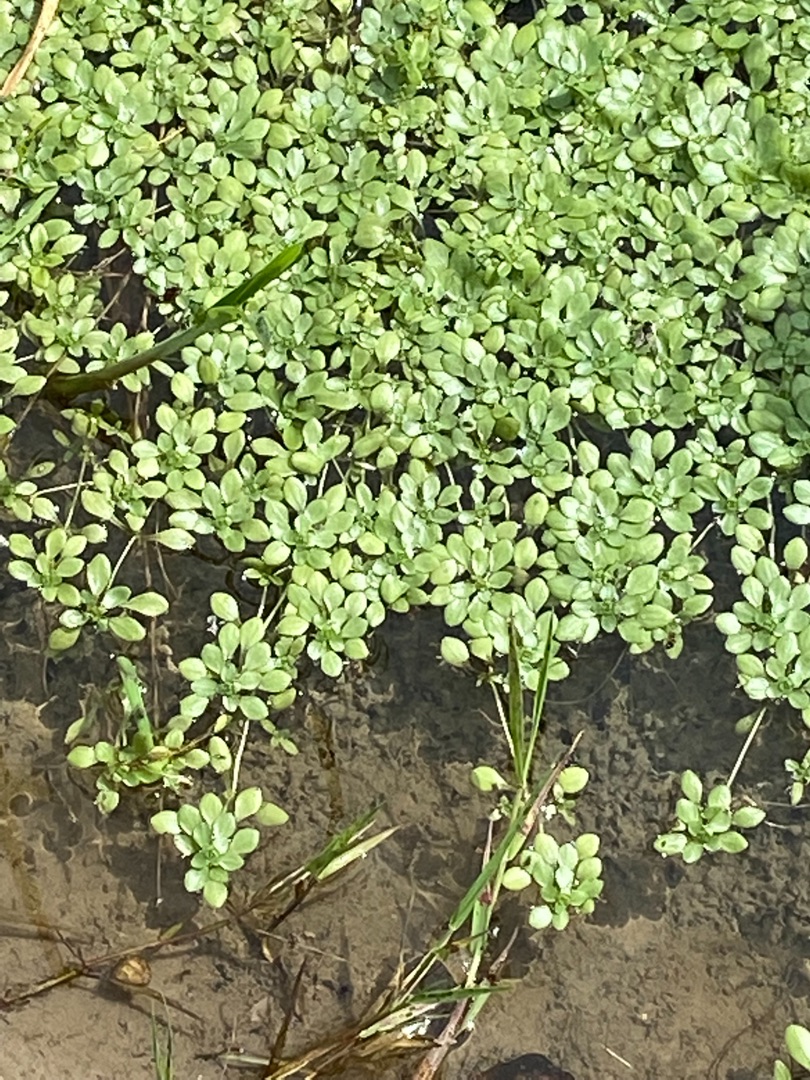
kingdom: Plantae
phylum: Tracheophyta
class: Magnoliopsida
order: Lamiales
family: Plantaginaceae
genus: Callitriche
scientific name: Callitriche
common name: Vandstjerneslægten
